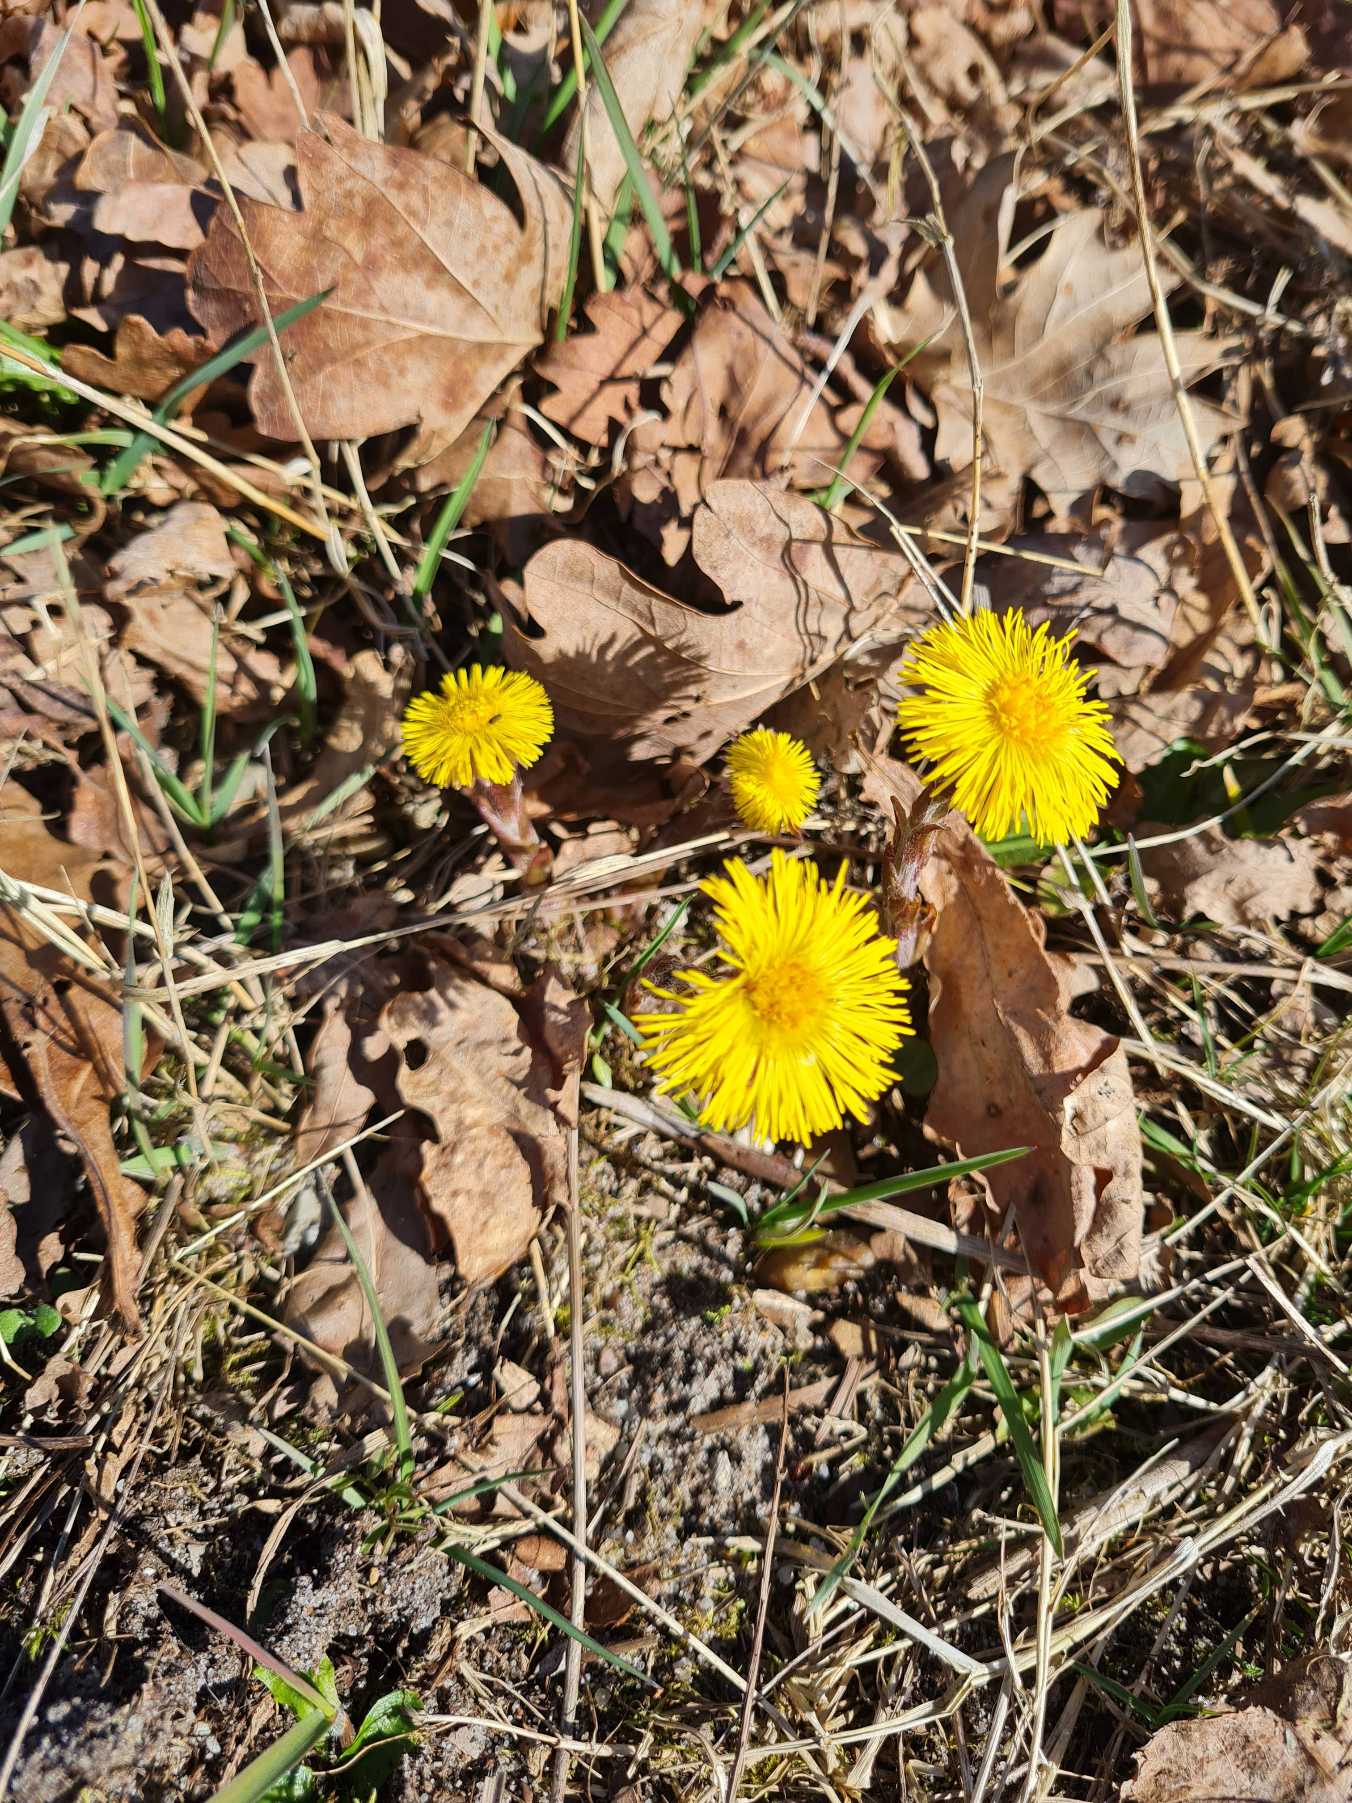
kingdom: Plantae
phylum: Tracheophyta
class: Magnoliopsida
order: Asterales
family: Asteraceae
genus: Tussilago
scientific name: Tussilago farfara
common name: Følfod
